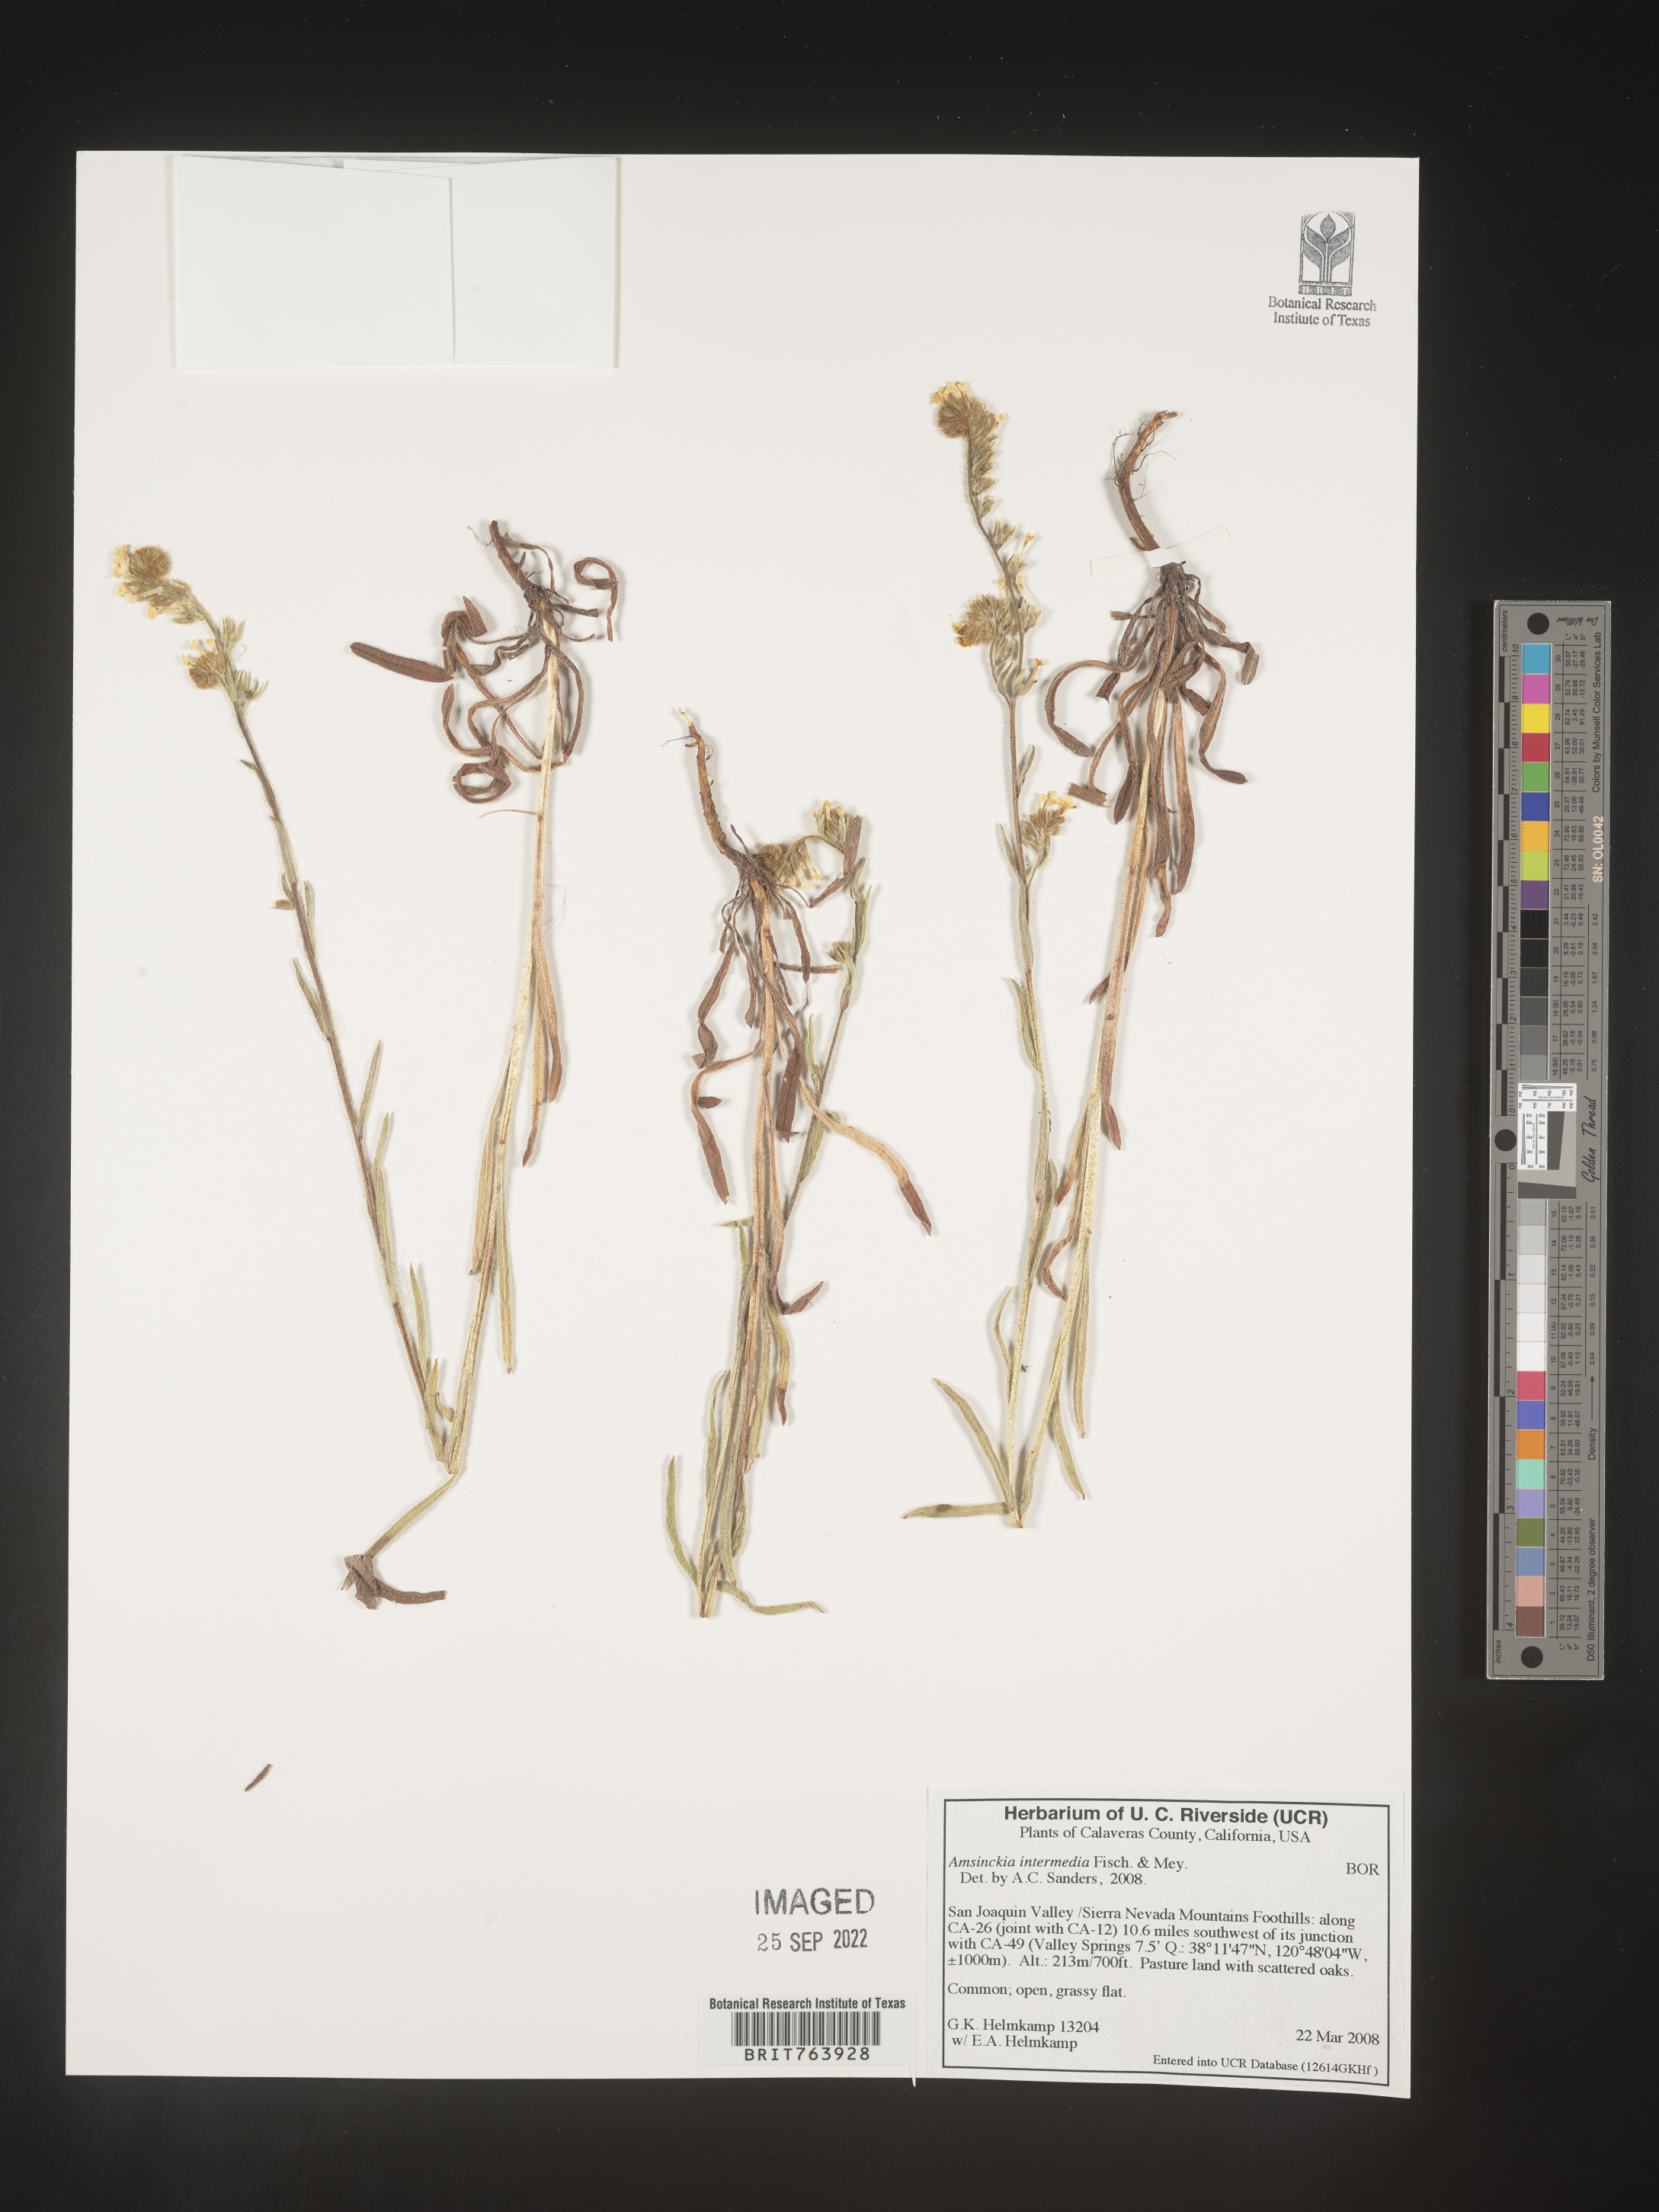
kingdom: Plantae
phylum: Tracheophyta
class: Magnoliopsida
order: Boraginales
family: Boraginaceae
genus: Amsinckia
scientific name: Amsinckia
